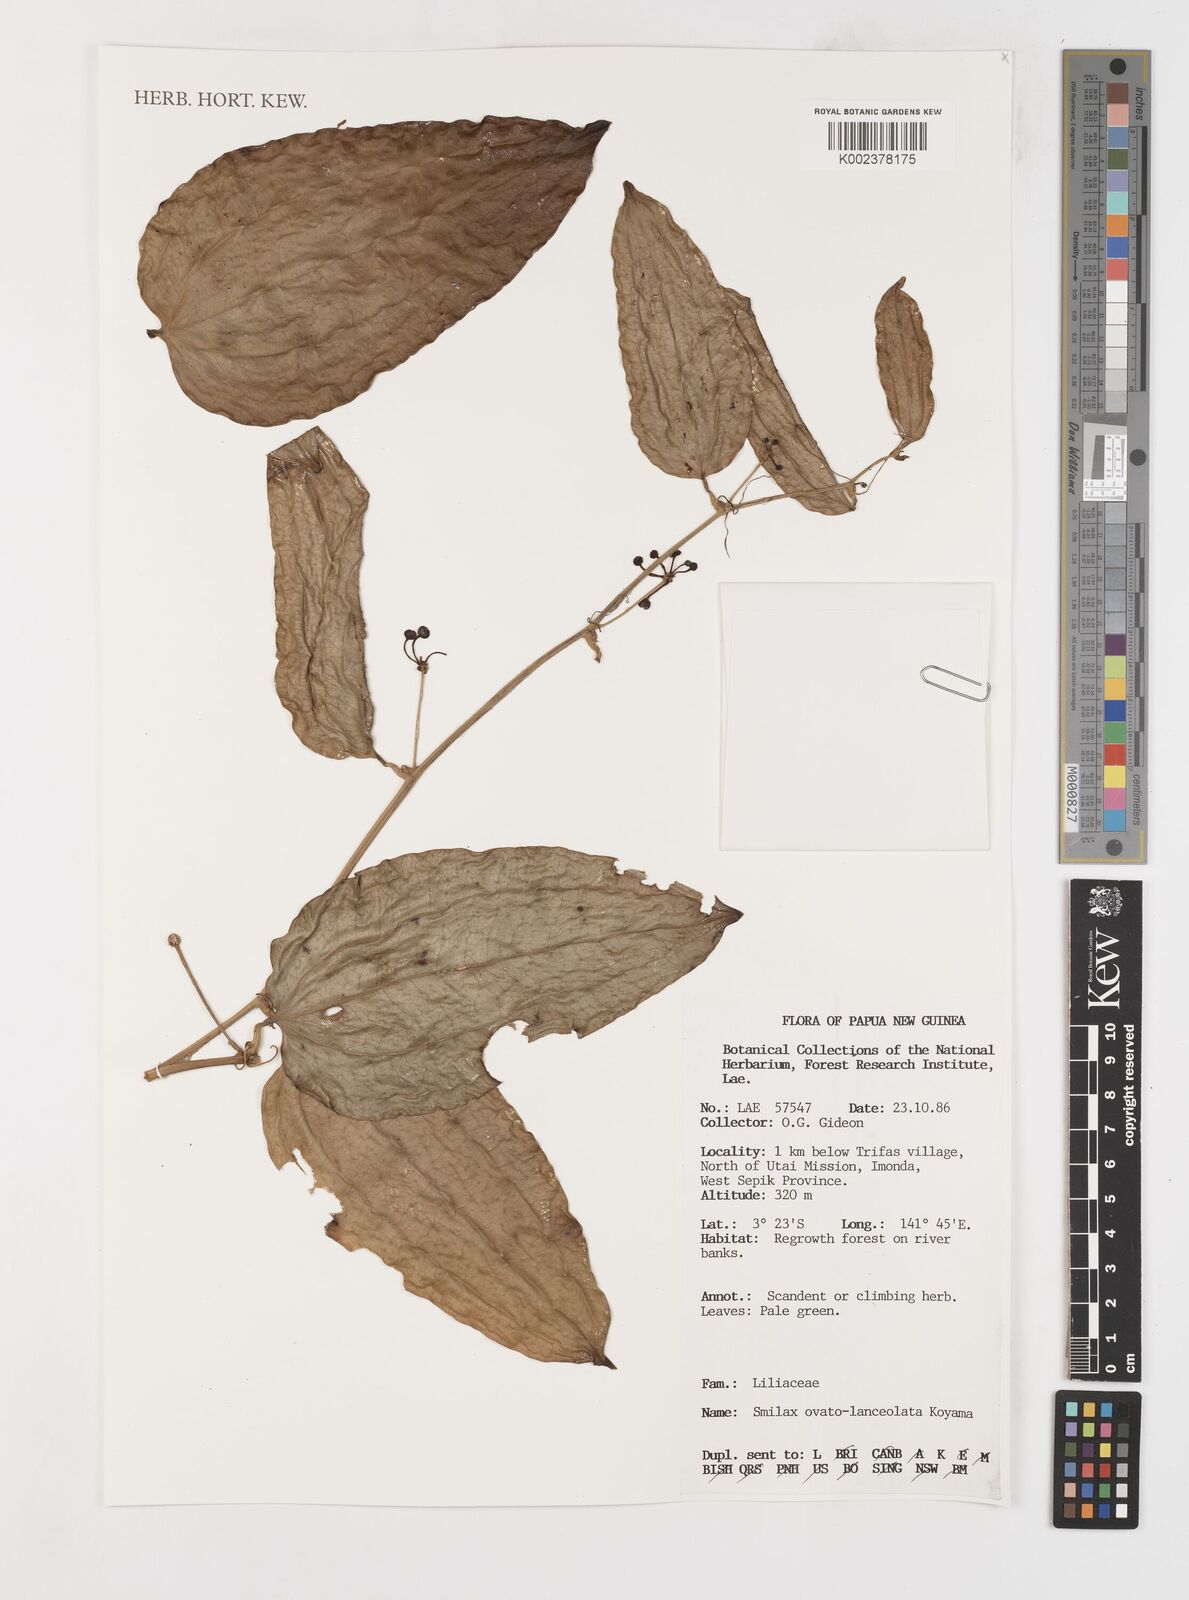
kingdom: Plantae
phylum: Tracheophyta
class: Liliopsida
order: Liliales
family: Smilacaceae
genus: Smilax
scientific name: Smilax ovatolanceolata
